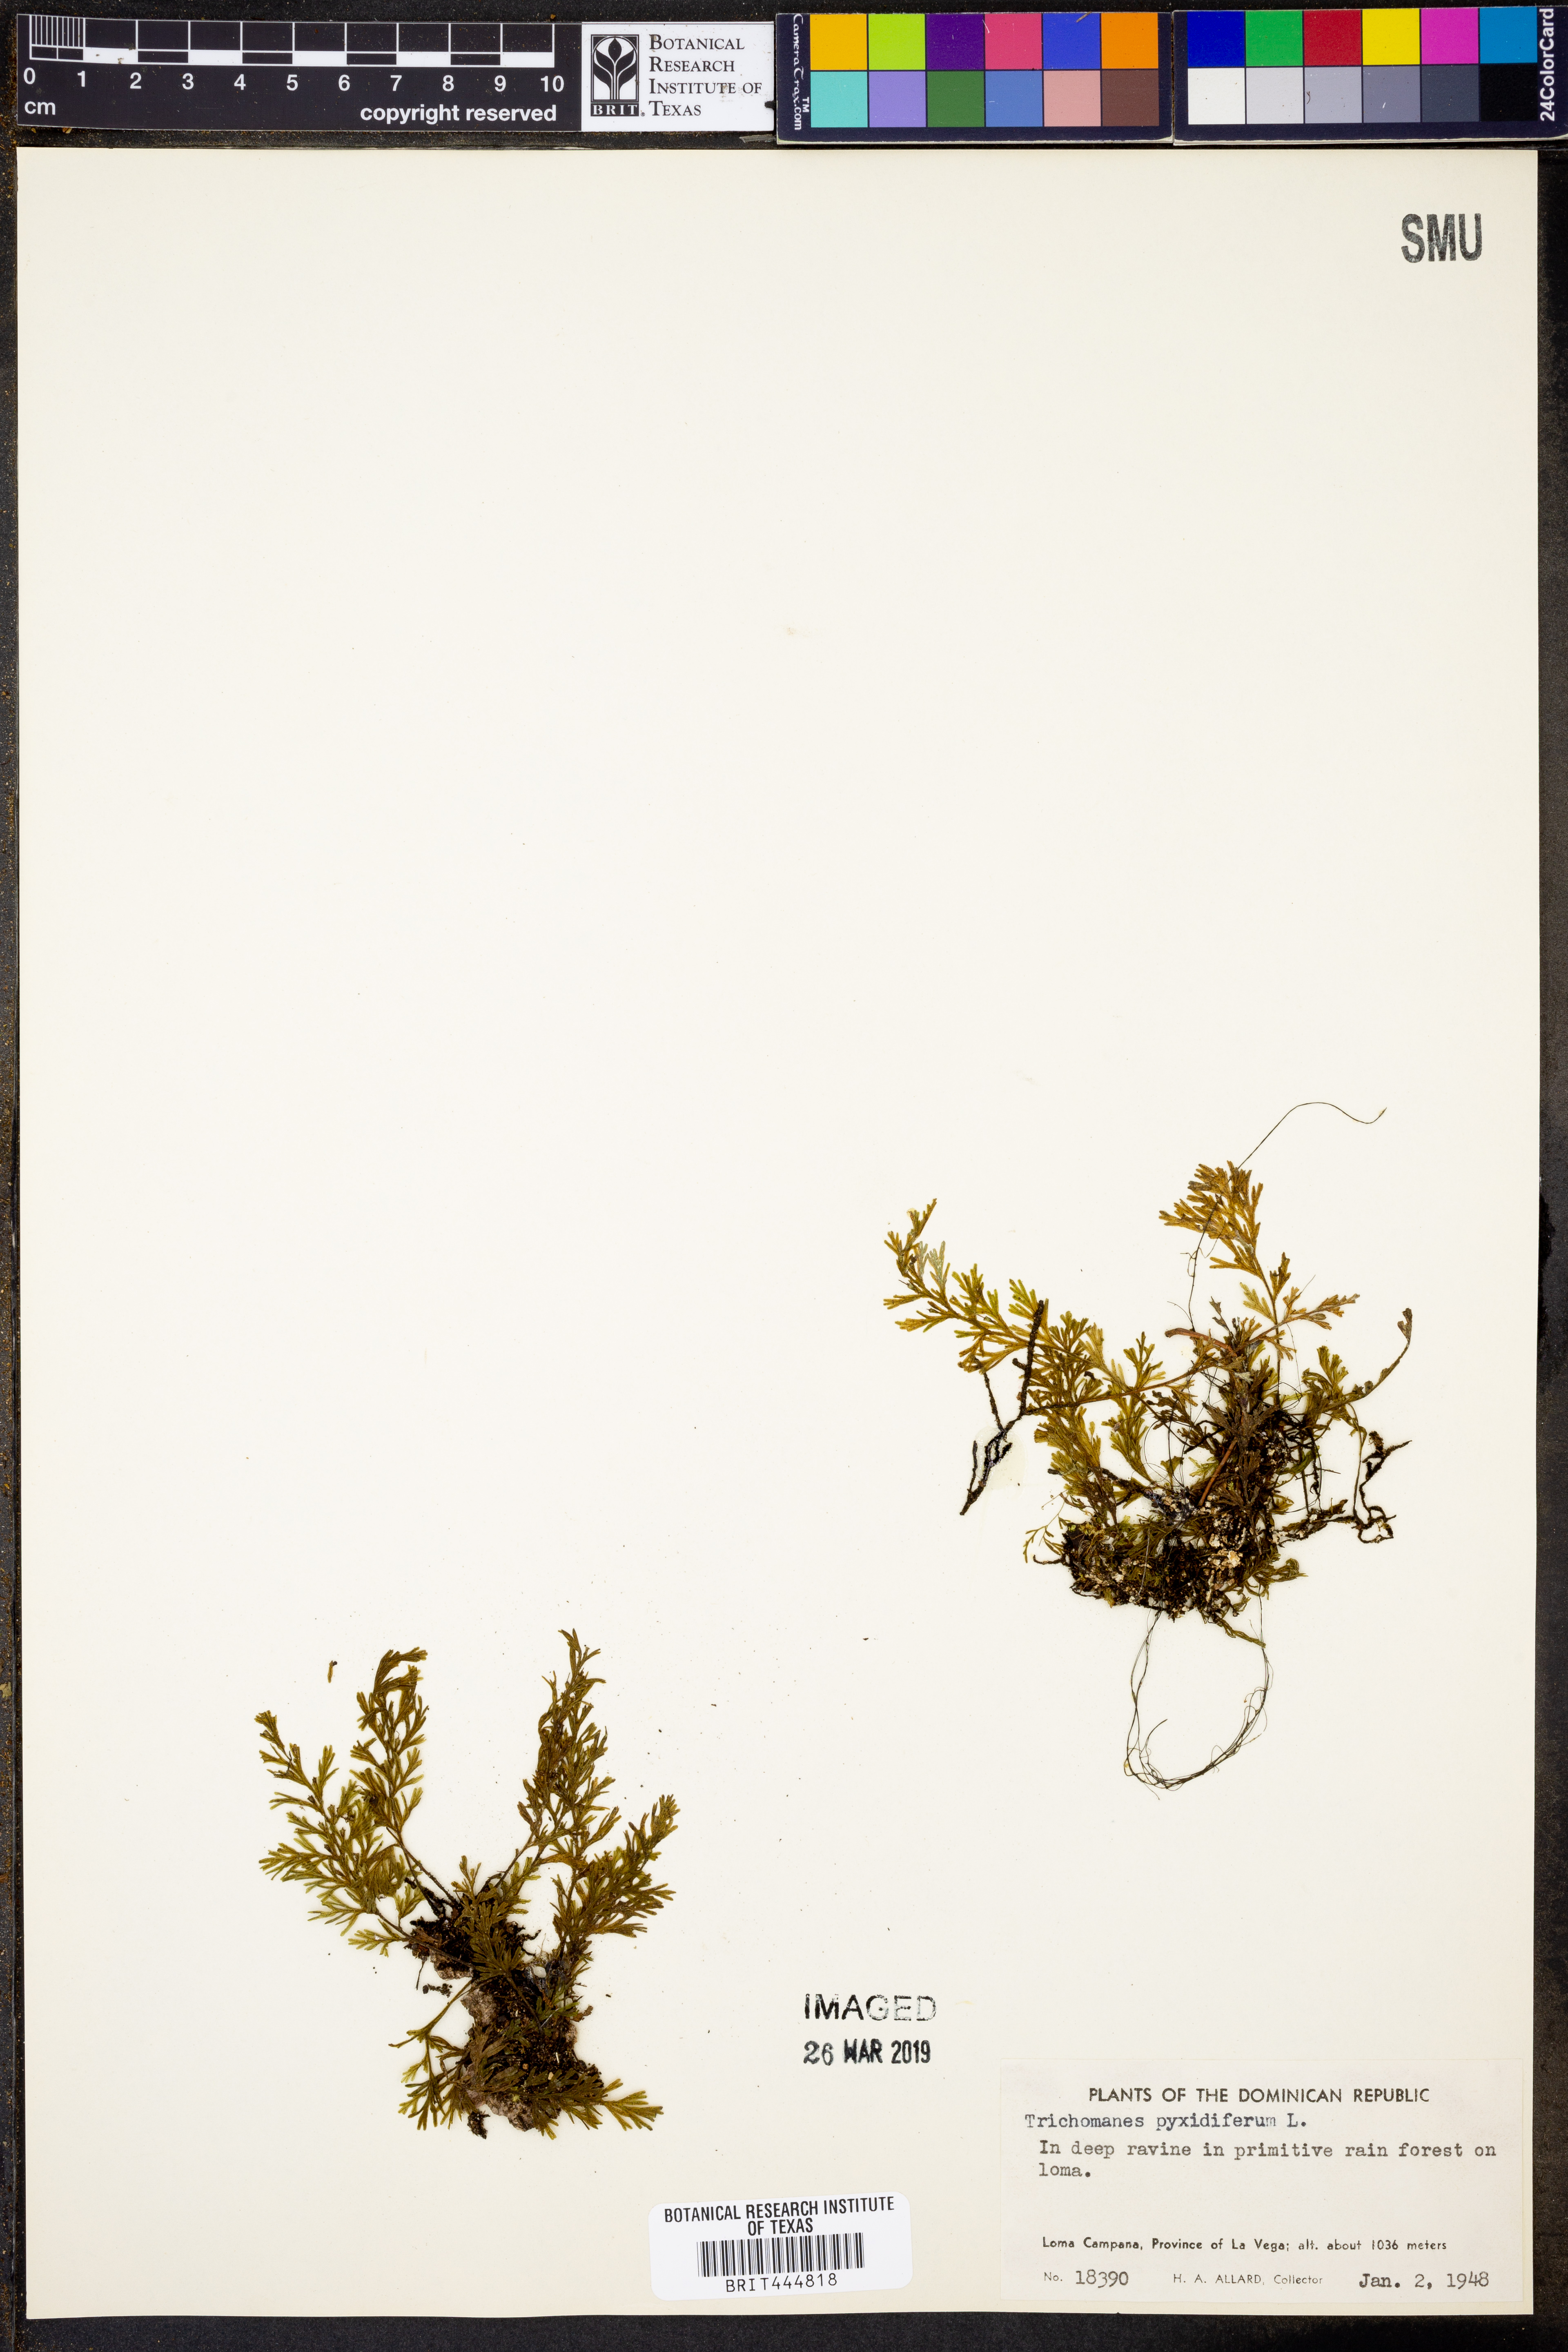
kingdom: Plantae
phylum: Tracheophyta
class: Polypodiopsida
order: Hymenophyllales
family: Hymenophyllaceae
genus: Polyphlebium
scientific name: Polyphlebium capillaceum
